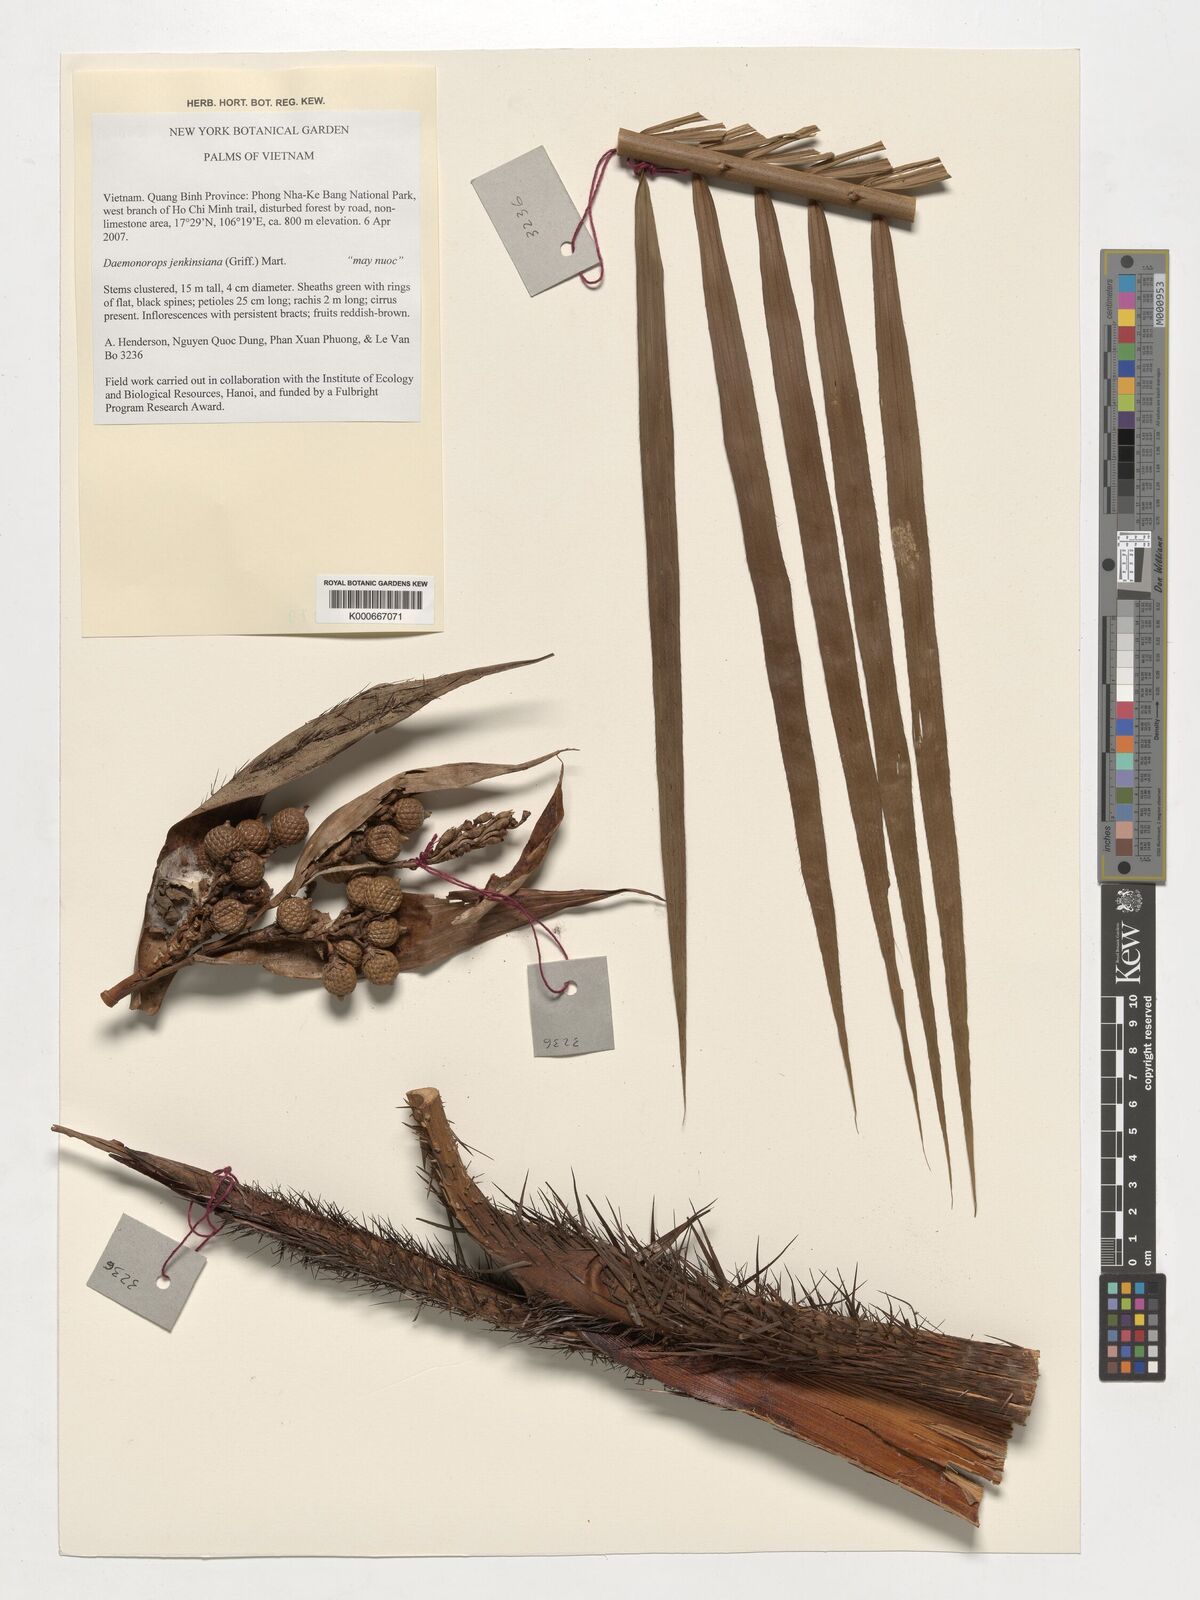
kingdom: Plantae
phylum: Tracheophyta
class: Liliopsida
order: Arecales
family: Arecaceae
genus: Calamus
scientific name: Calamus melanochaetes
